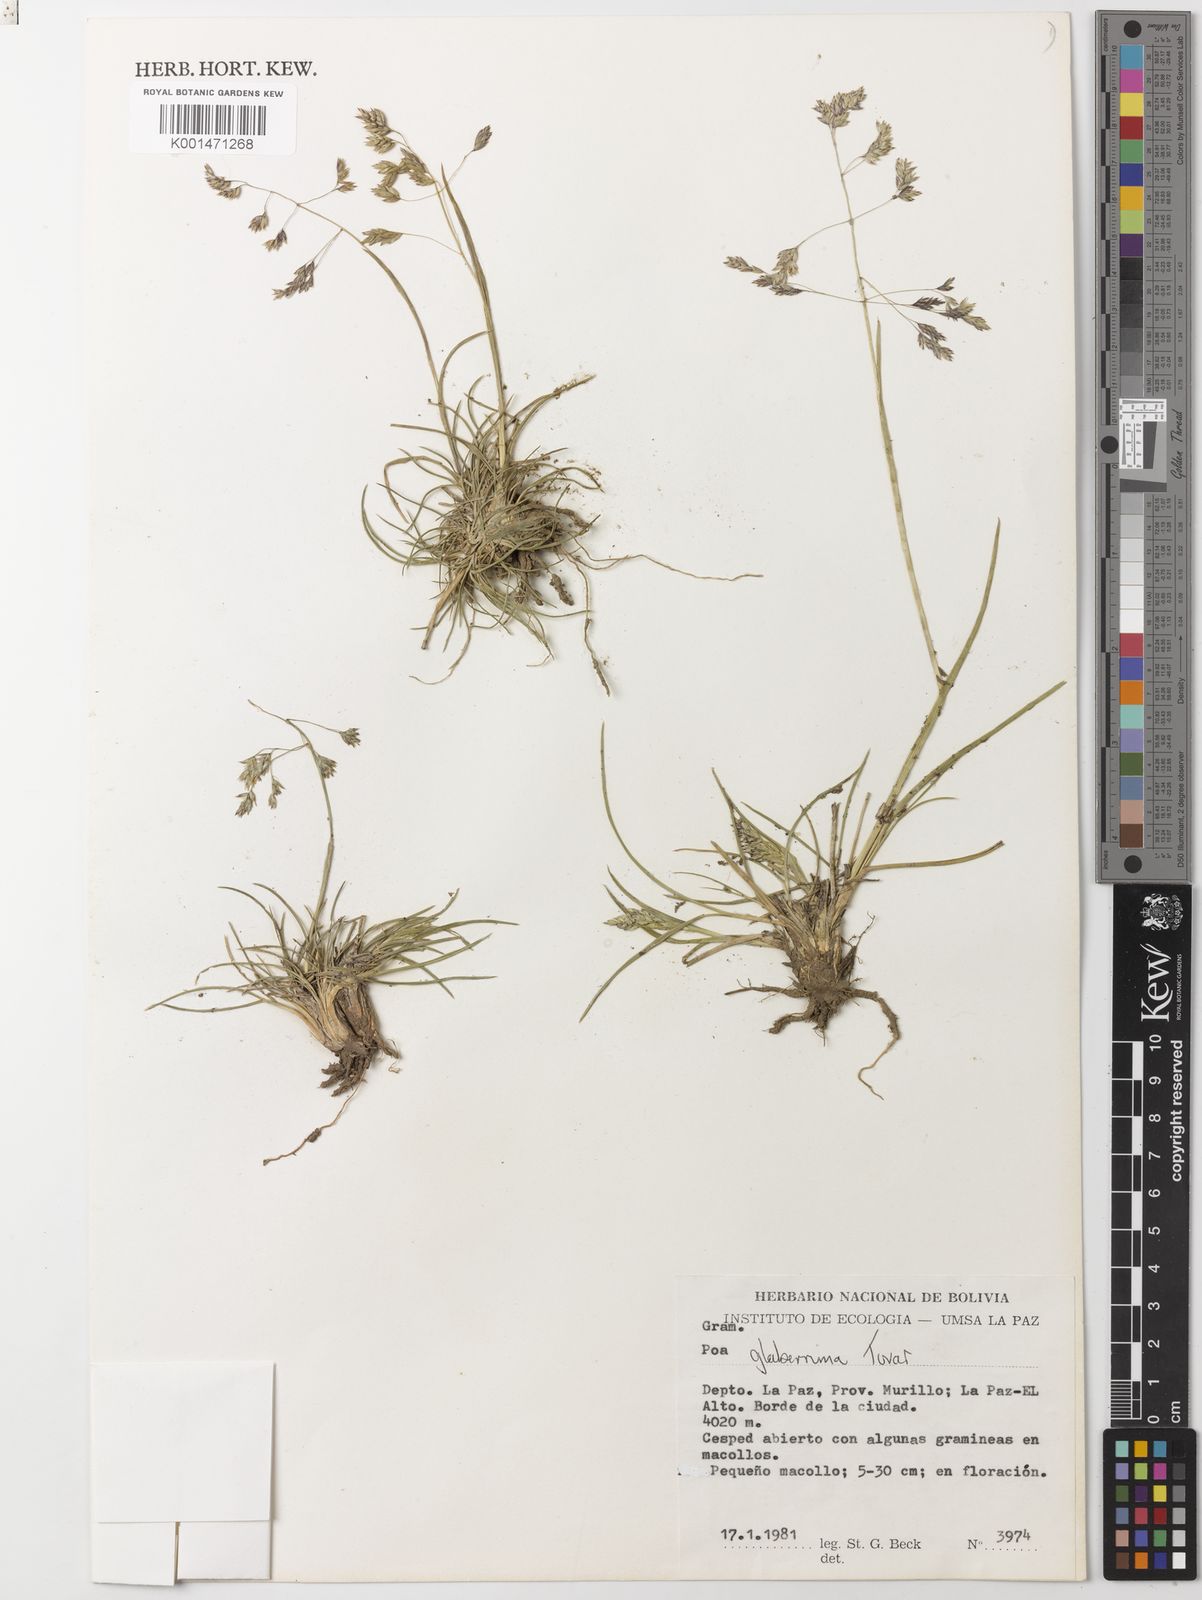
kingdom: Plantae
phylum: Tracheophyta
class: Liliopsida
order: Poales
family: Poaceae
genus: Poa
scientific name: Poa adusta
